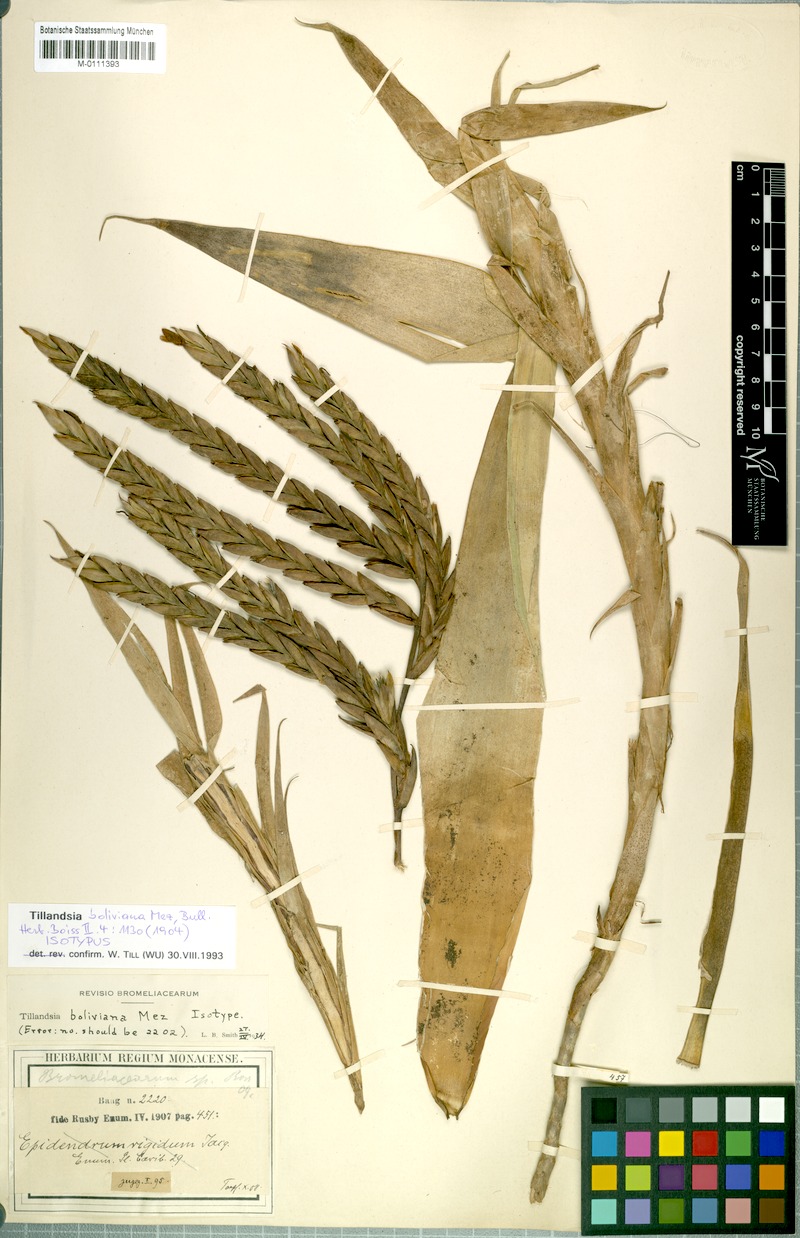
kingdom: Plantae
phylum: Tracheophyta
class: Liliopsida
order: Poales
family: Bromeliaceae
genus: Tillandsia
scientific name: Tillandsia boliviana
